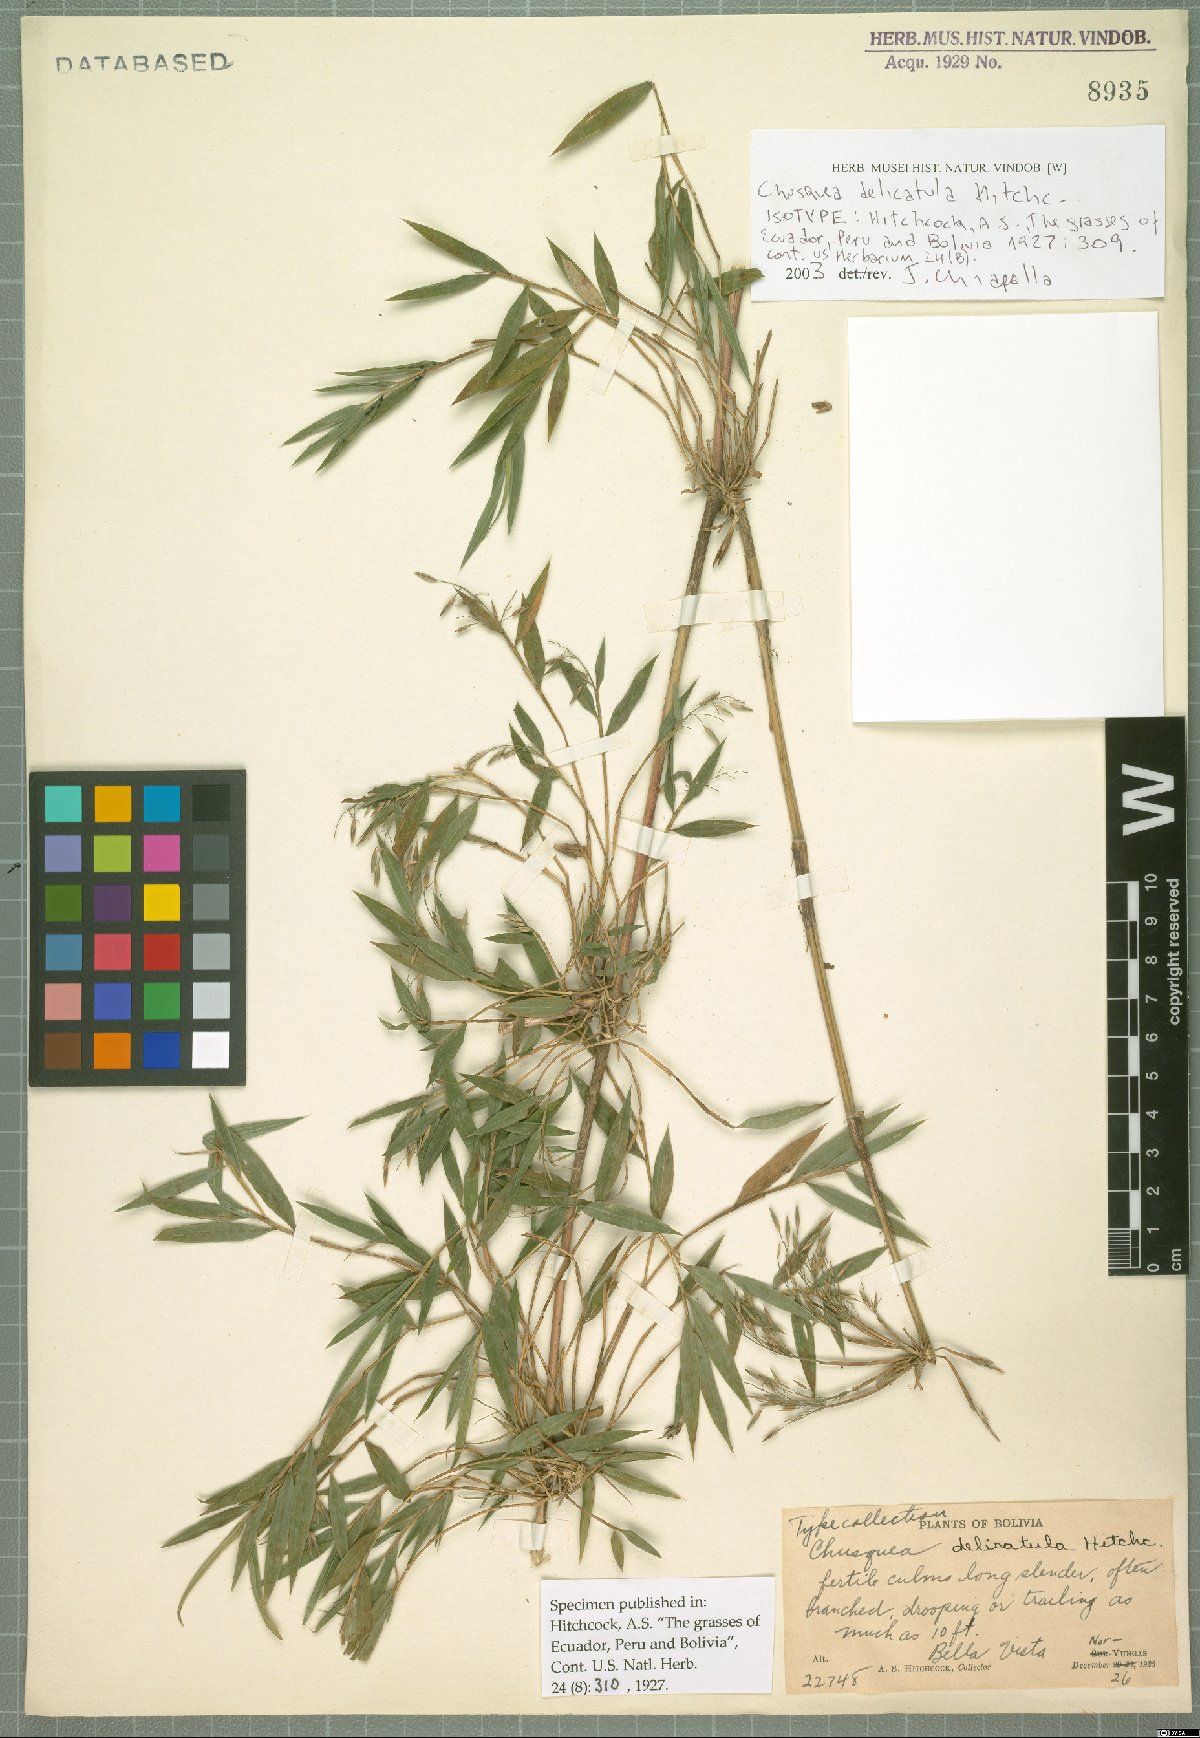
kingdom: Plantae
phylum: Tracheophyta
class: Liliopsida
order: Poales
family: Poaceae
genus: Chusquea
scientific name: Chusquea delicatula
